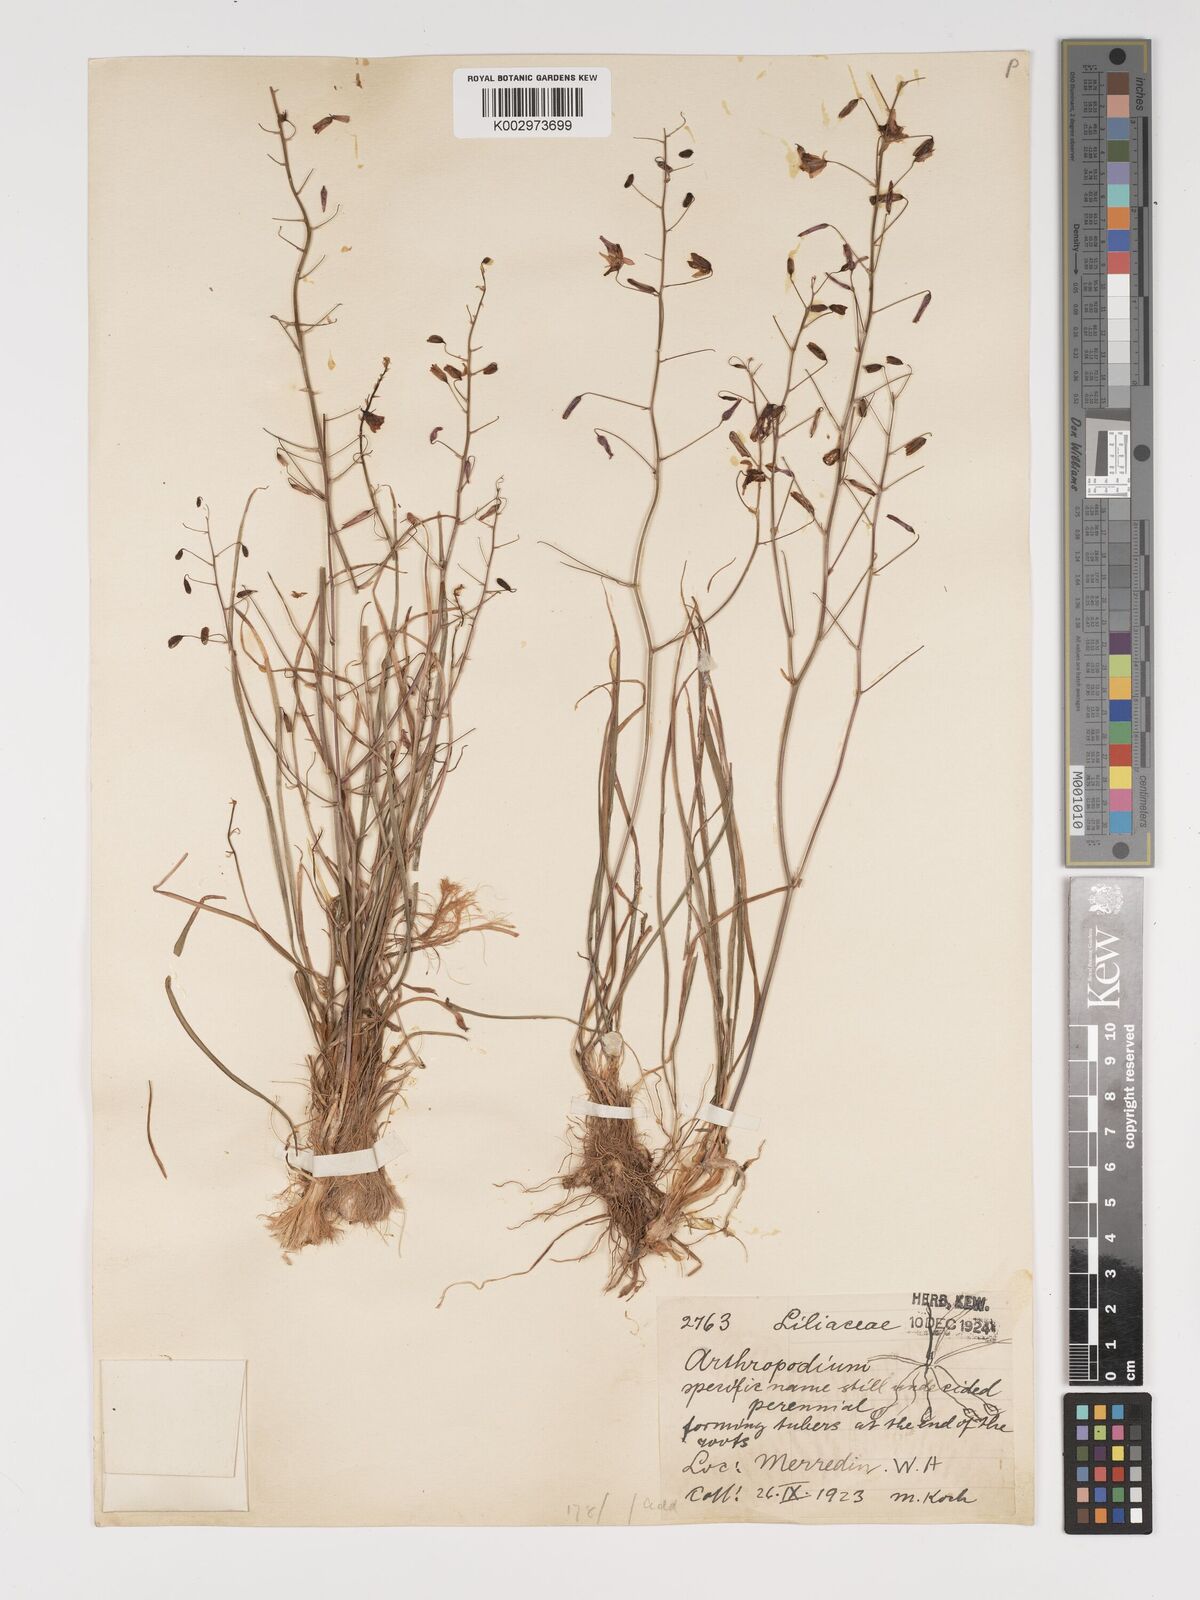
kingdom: Plantae
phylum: Tracheophyta
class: Liliopsida
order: Asparagales
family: Asparagaceae
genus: Arthropodium
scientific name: Arthropodium dyeri
